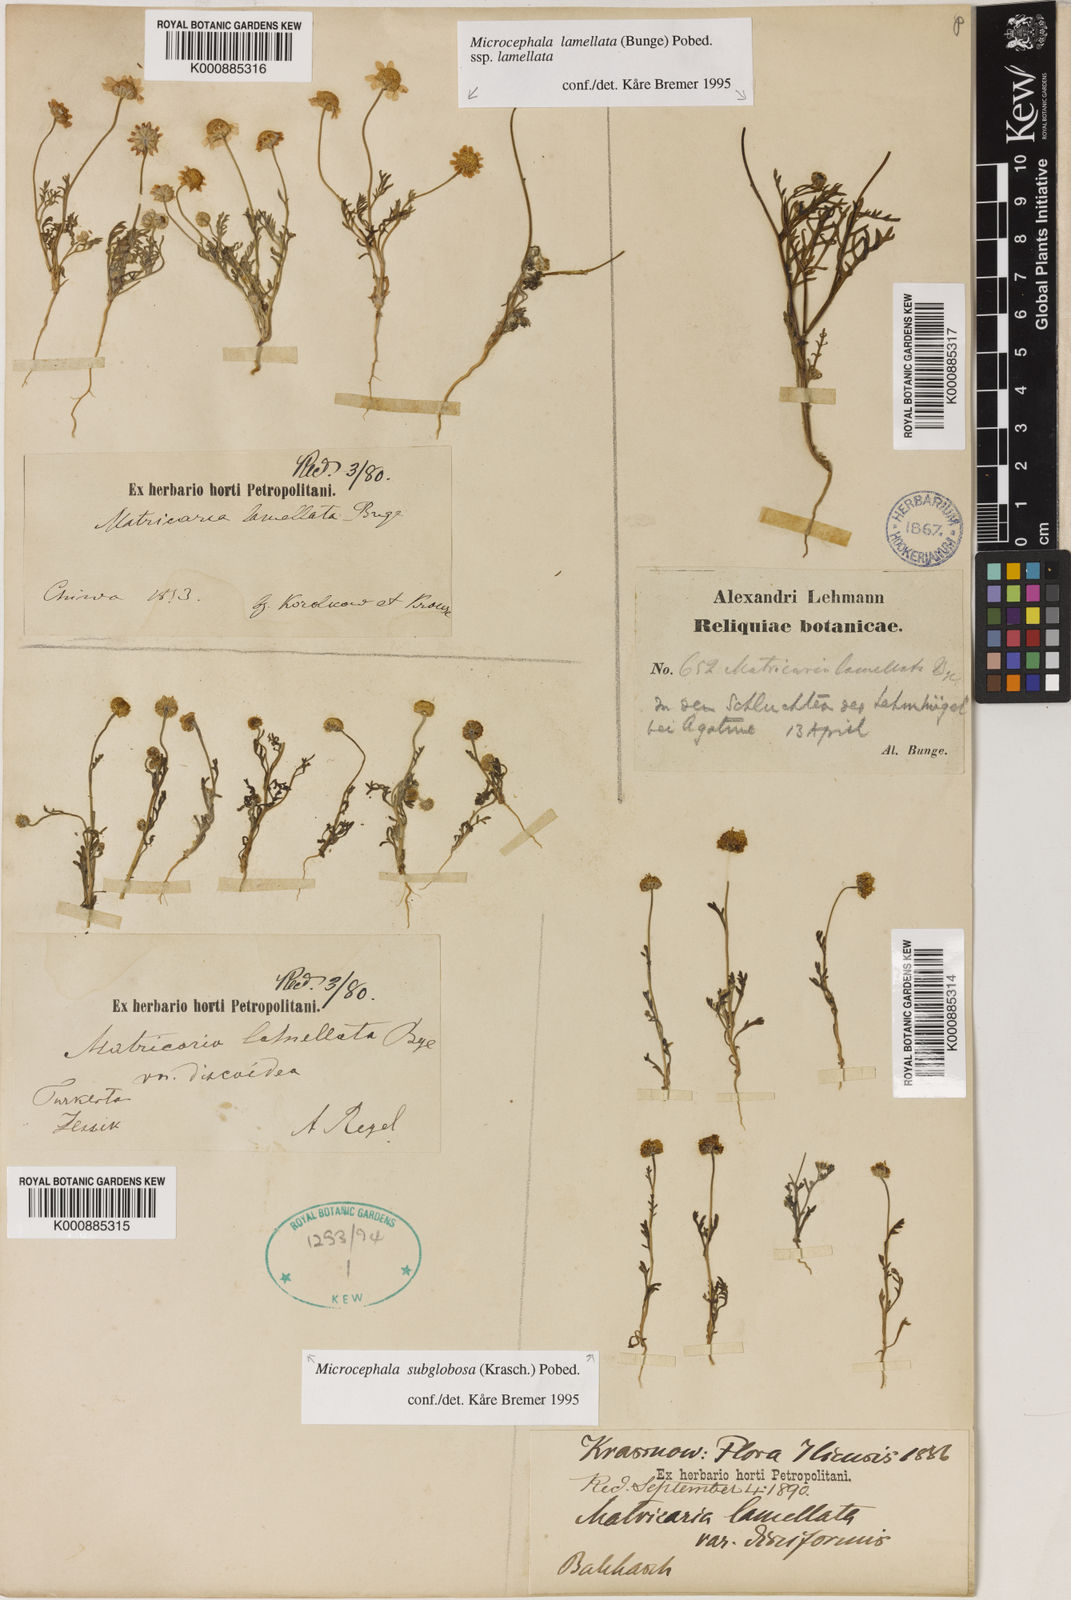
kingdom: Plantae
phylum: Tracheophyta
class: Magnoliopsida
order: Asterales
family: Asteraceae
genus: Microcephala
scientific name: Microcephala subglobosa
